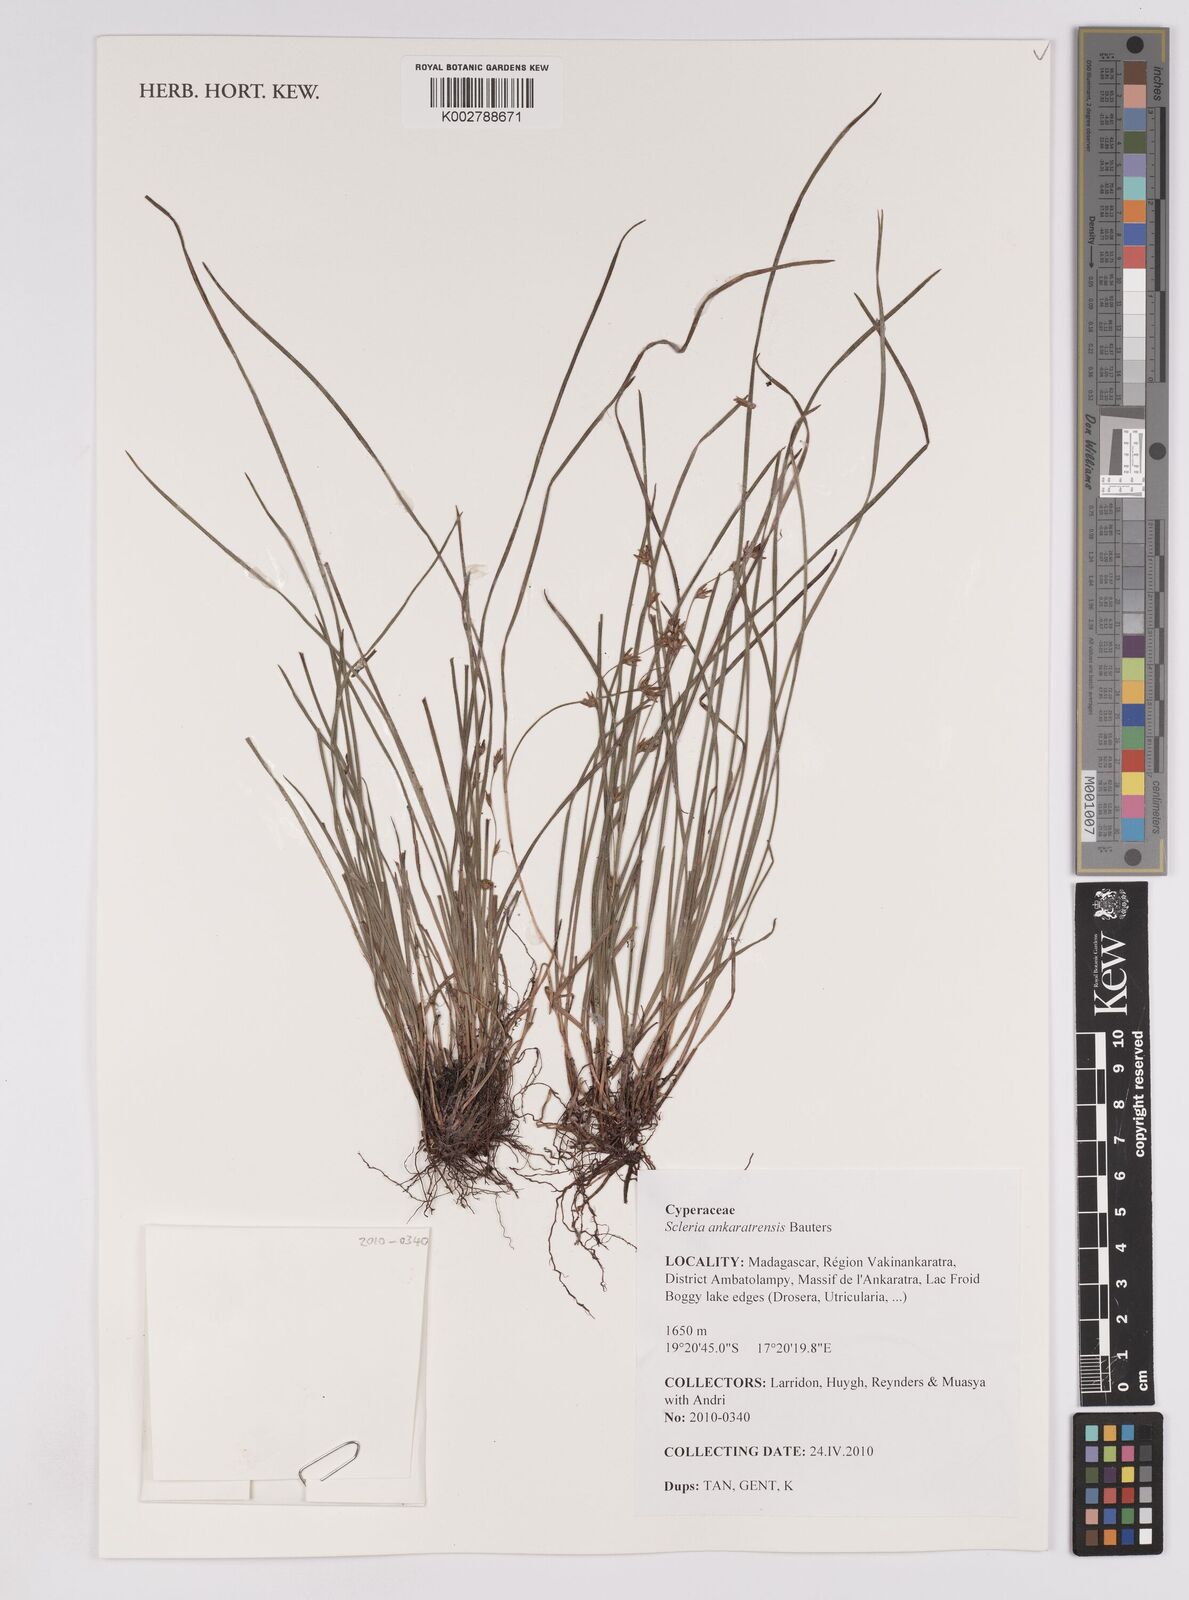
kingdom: Plantae
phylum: Tracheophyta
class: Liliopsida
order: Poales
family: Cyperaceae
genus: Scleria
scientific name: Scleria ankaratrensis
